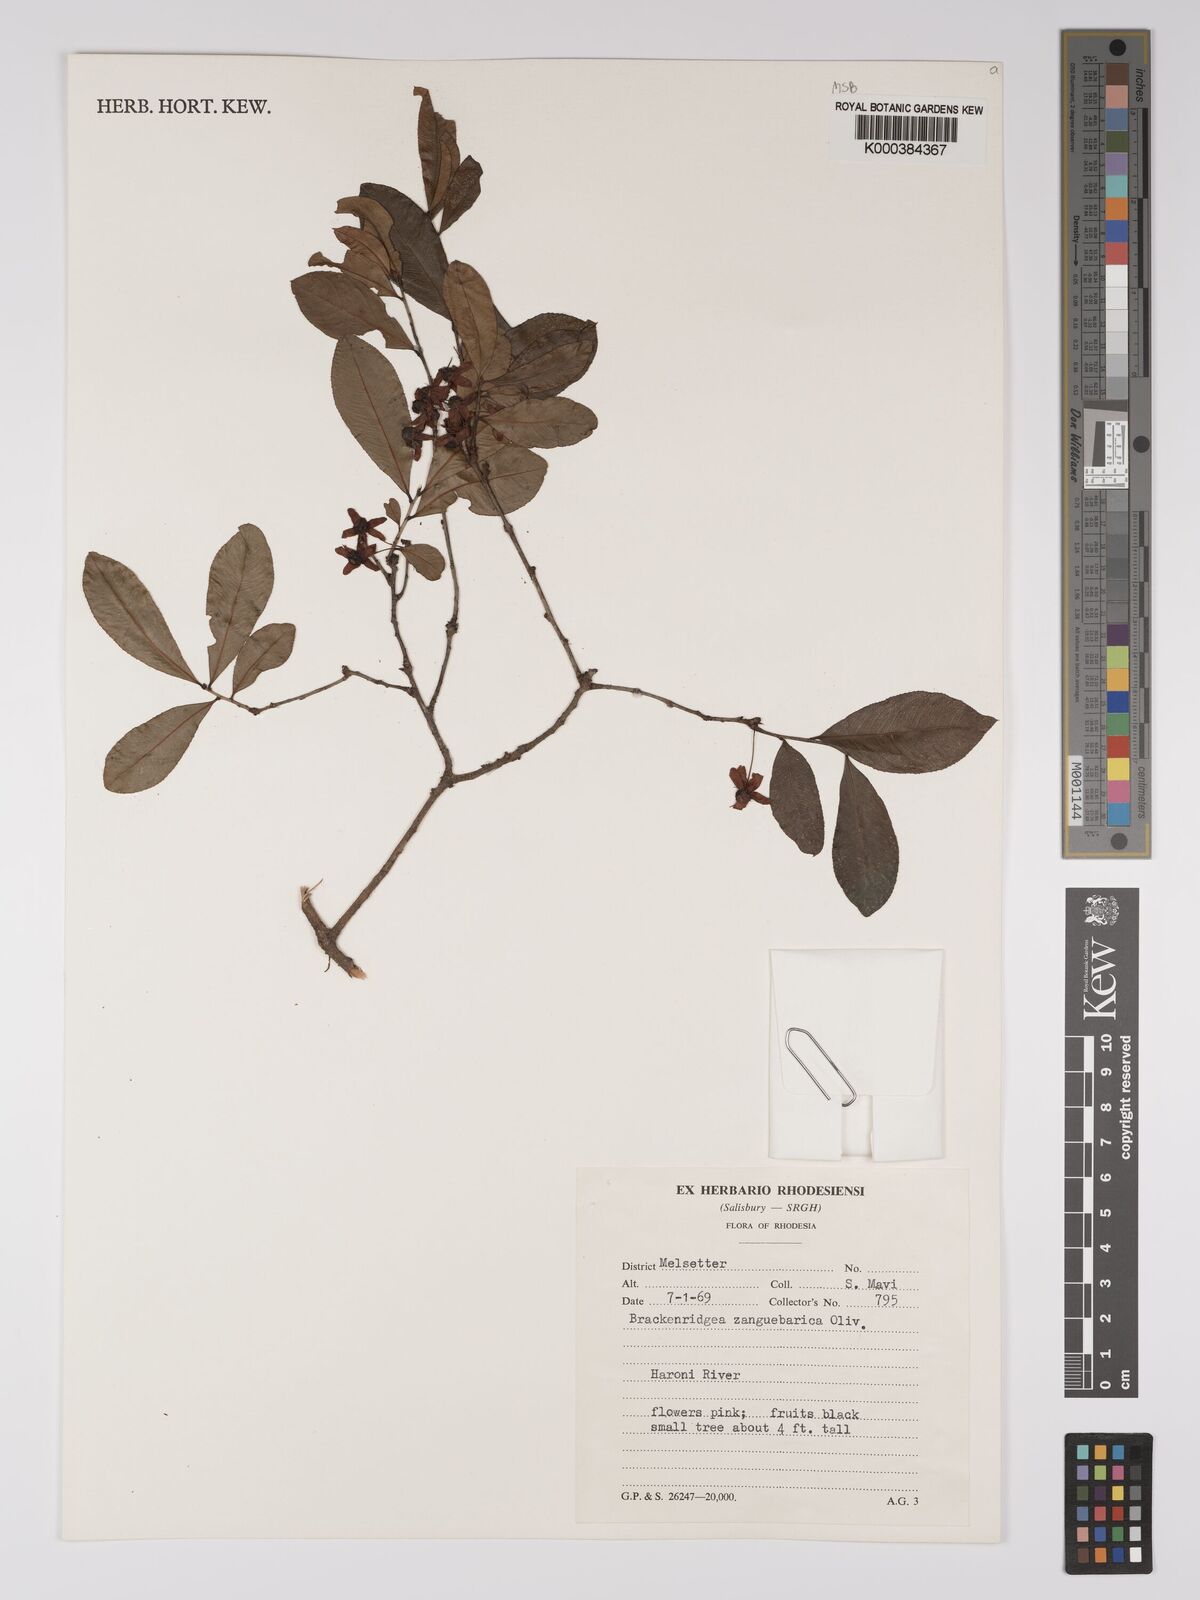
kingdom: Plantae
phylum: Tracheophyta
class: Magnoliopsida
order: Malpighiales
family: Ochnaceae
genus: Brackenridgea
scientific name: Brackenridgea zanguebarica
